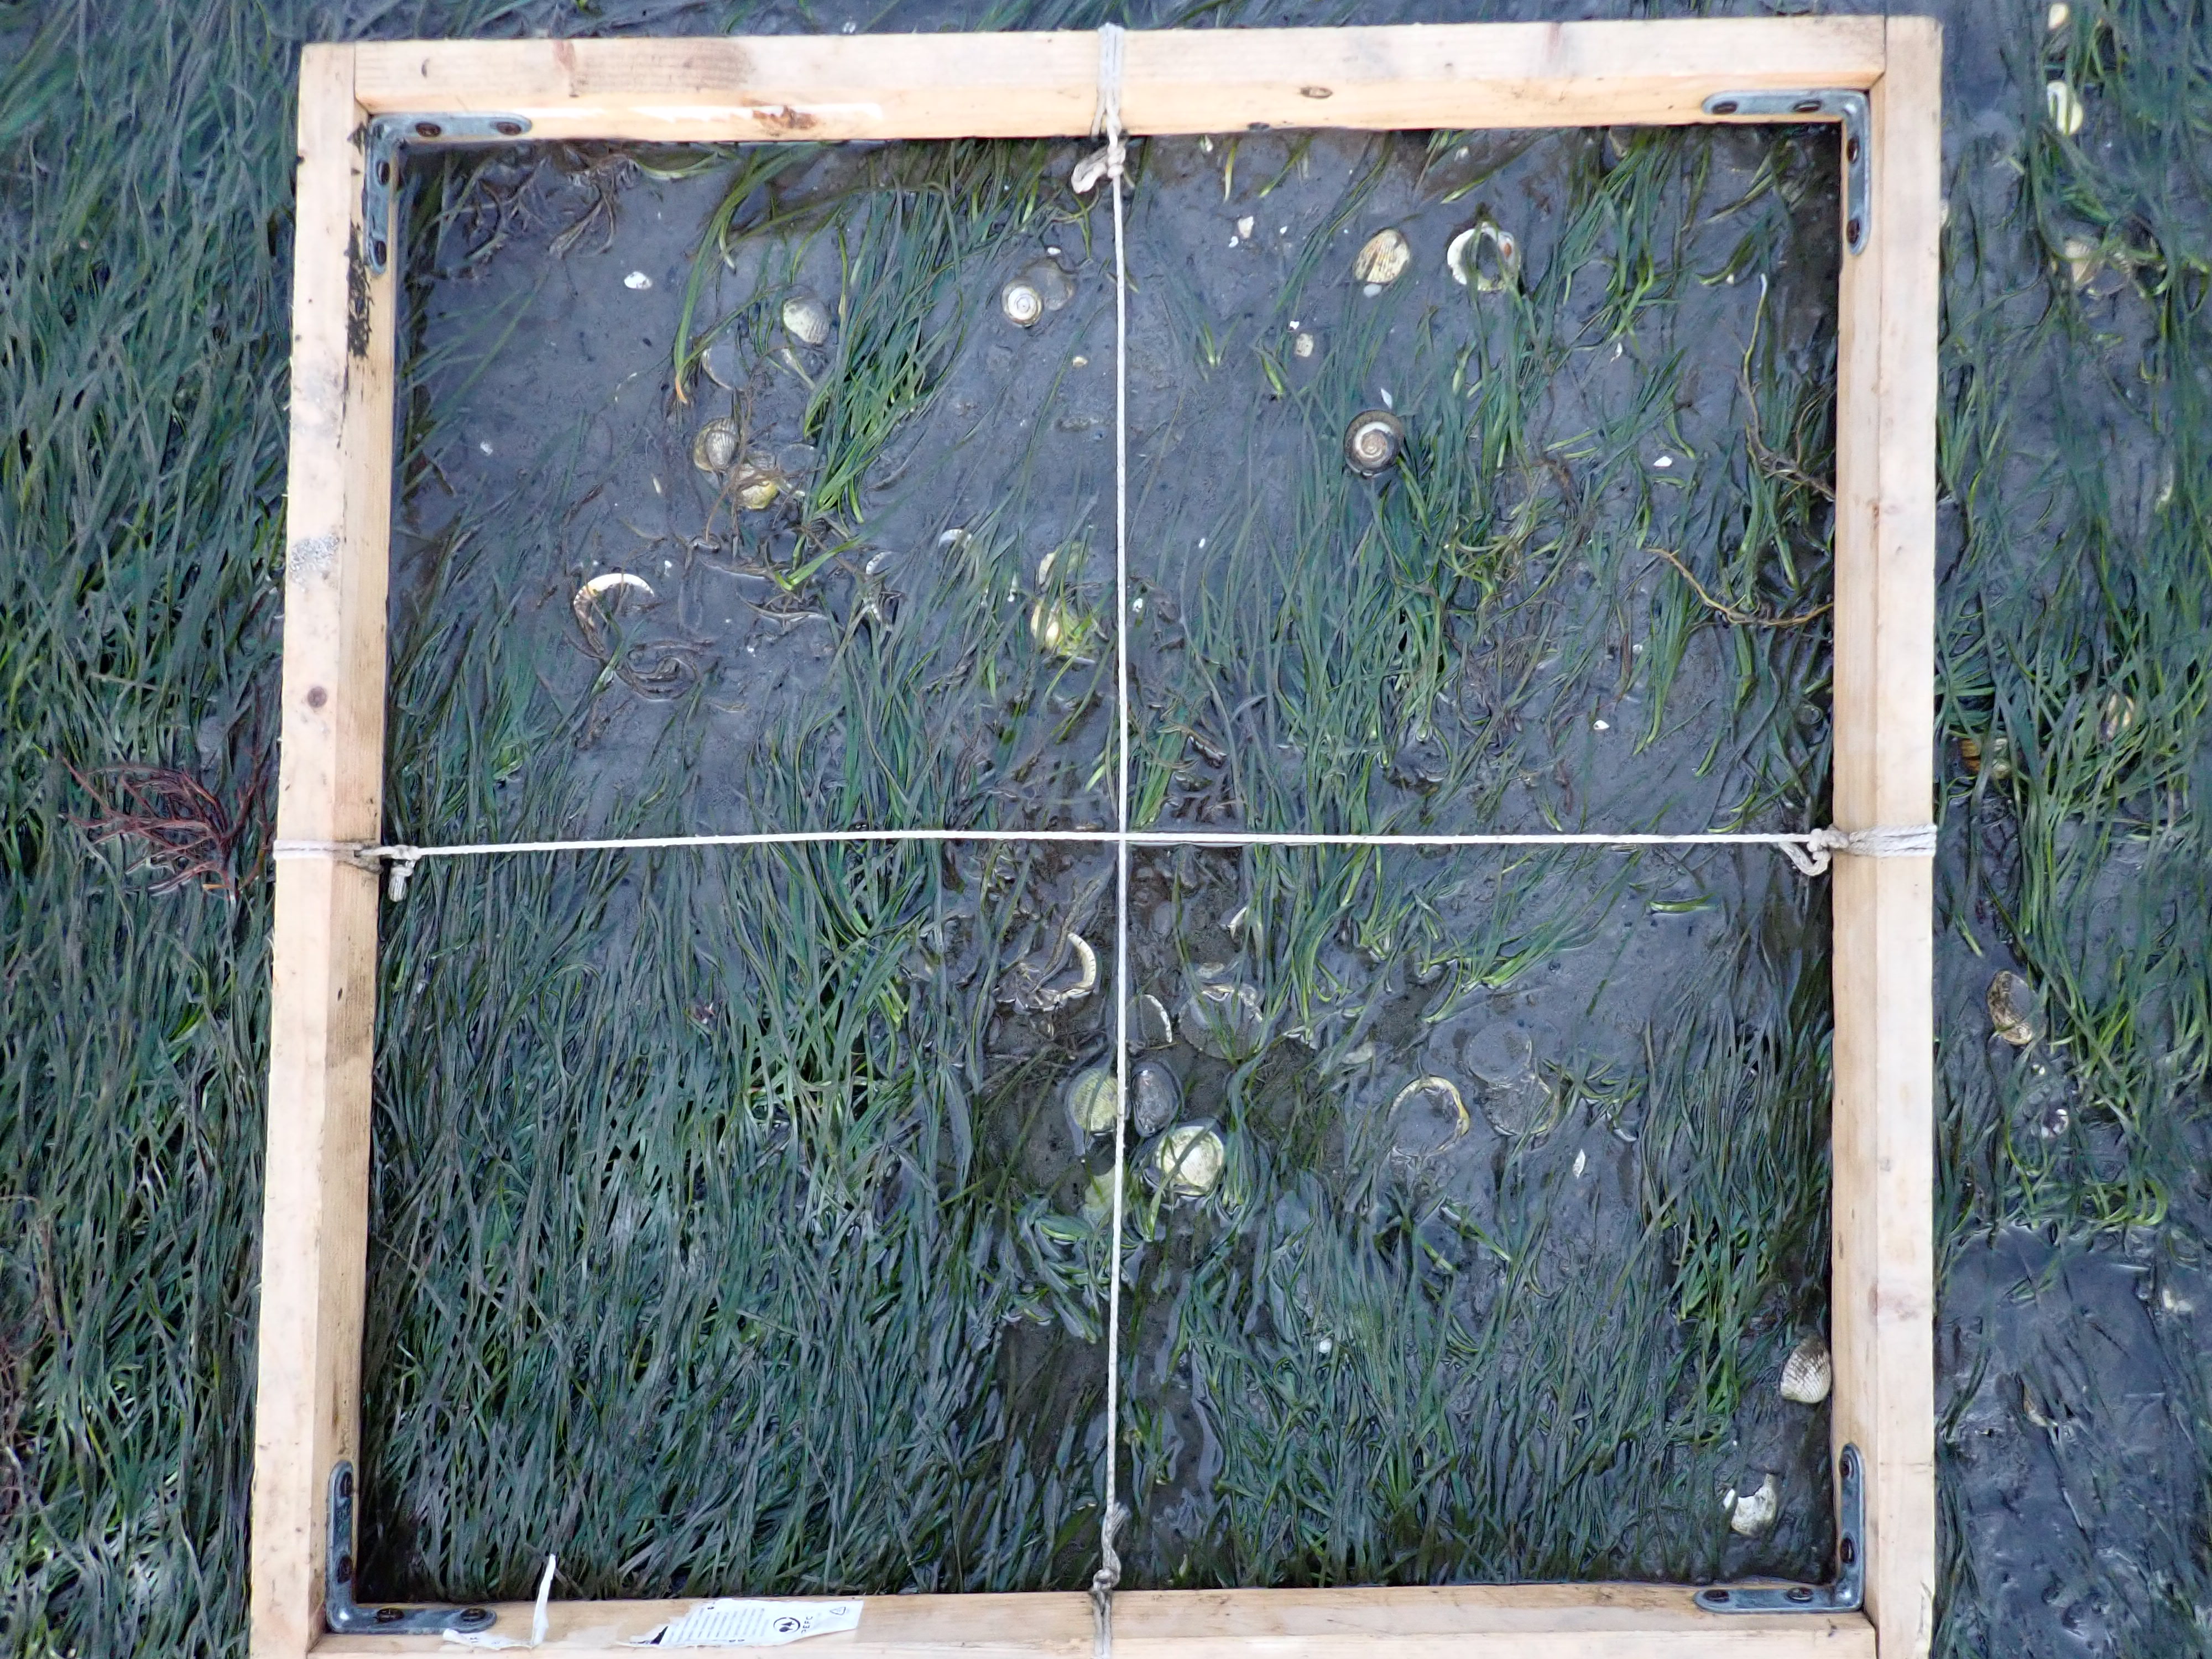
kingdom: Plantae
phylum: Tracheophyta
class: Liliopsida
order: Alismatales
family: Zosteraceae
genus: Zostera
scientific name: Zostera noltii
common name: Dwarf eelgrass
